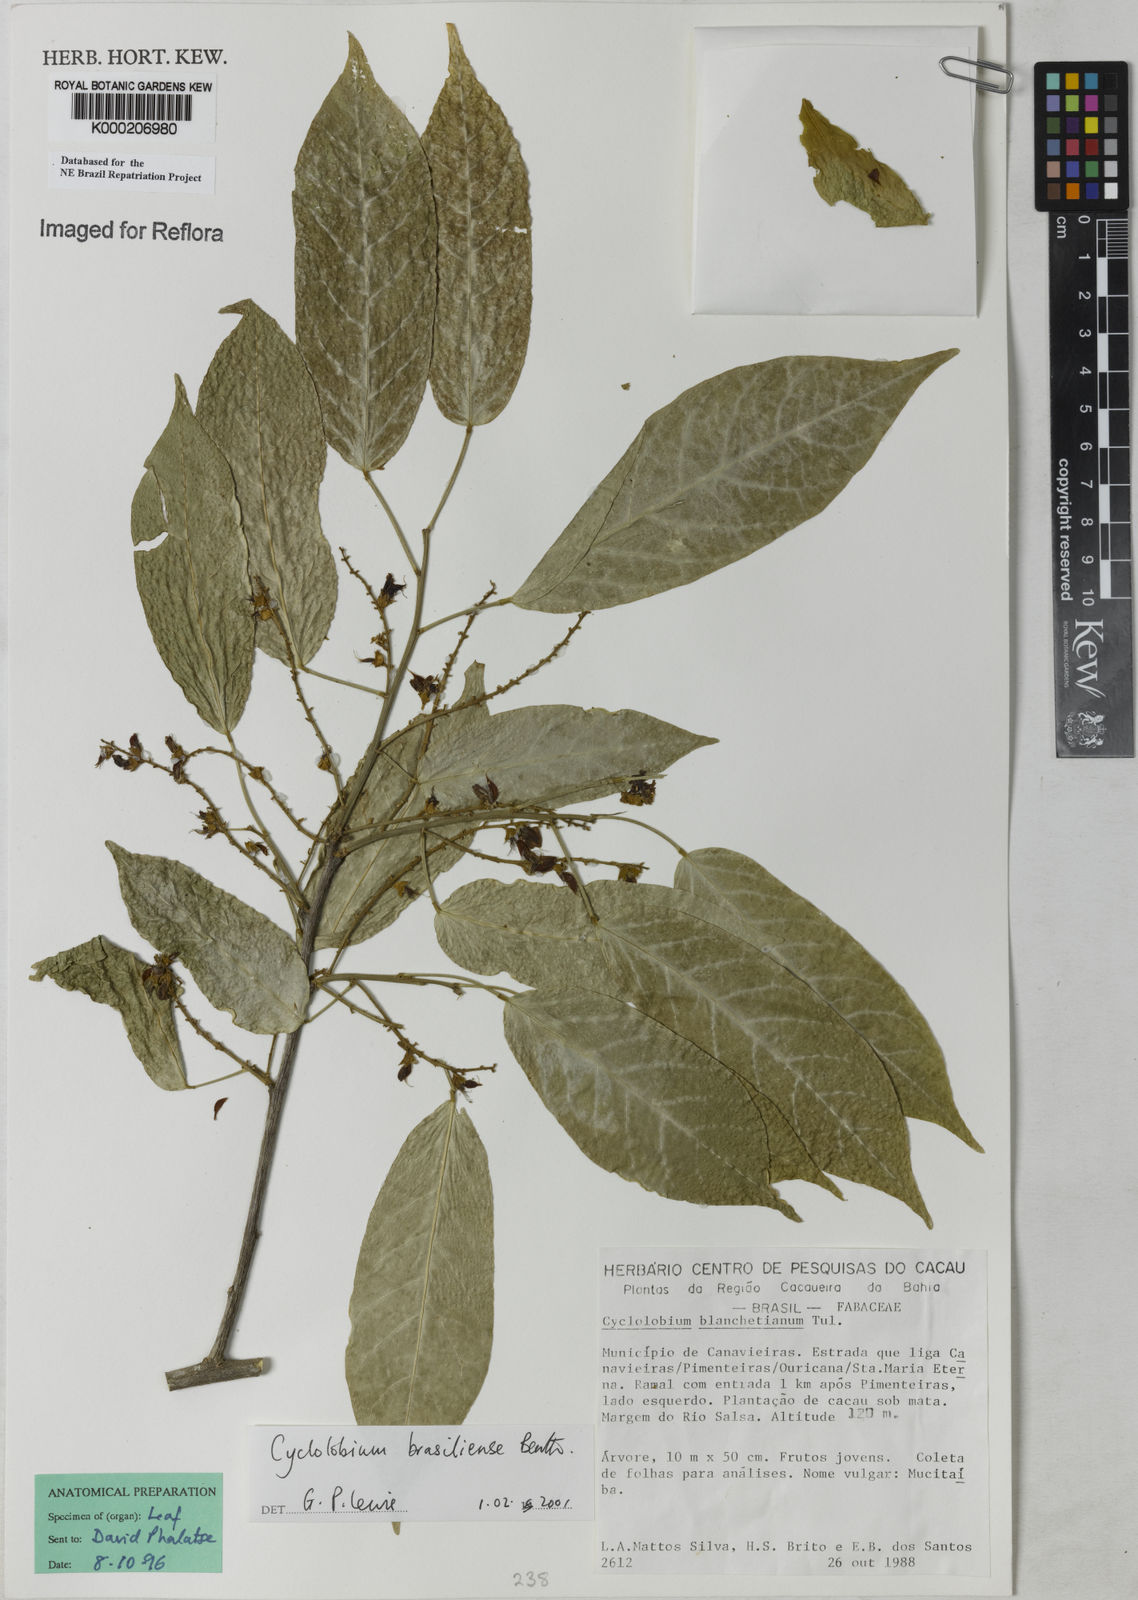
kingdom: Plantae
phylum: Tracheophyta
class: Magnoliopsida
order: Fabales
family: Fabaceae
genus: Cyclolobium
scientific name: Cyclolobium brasiliense
